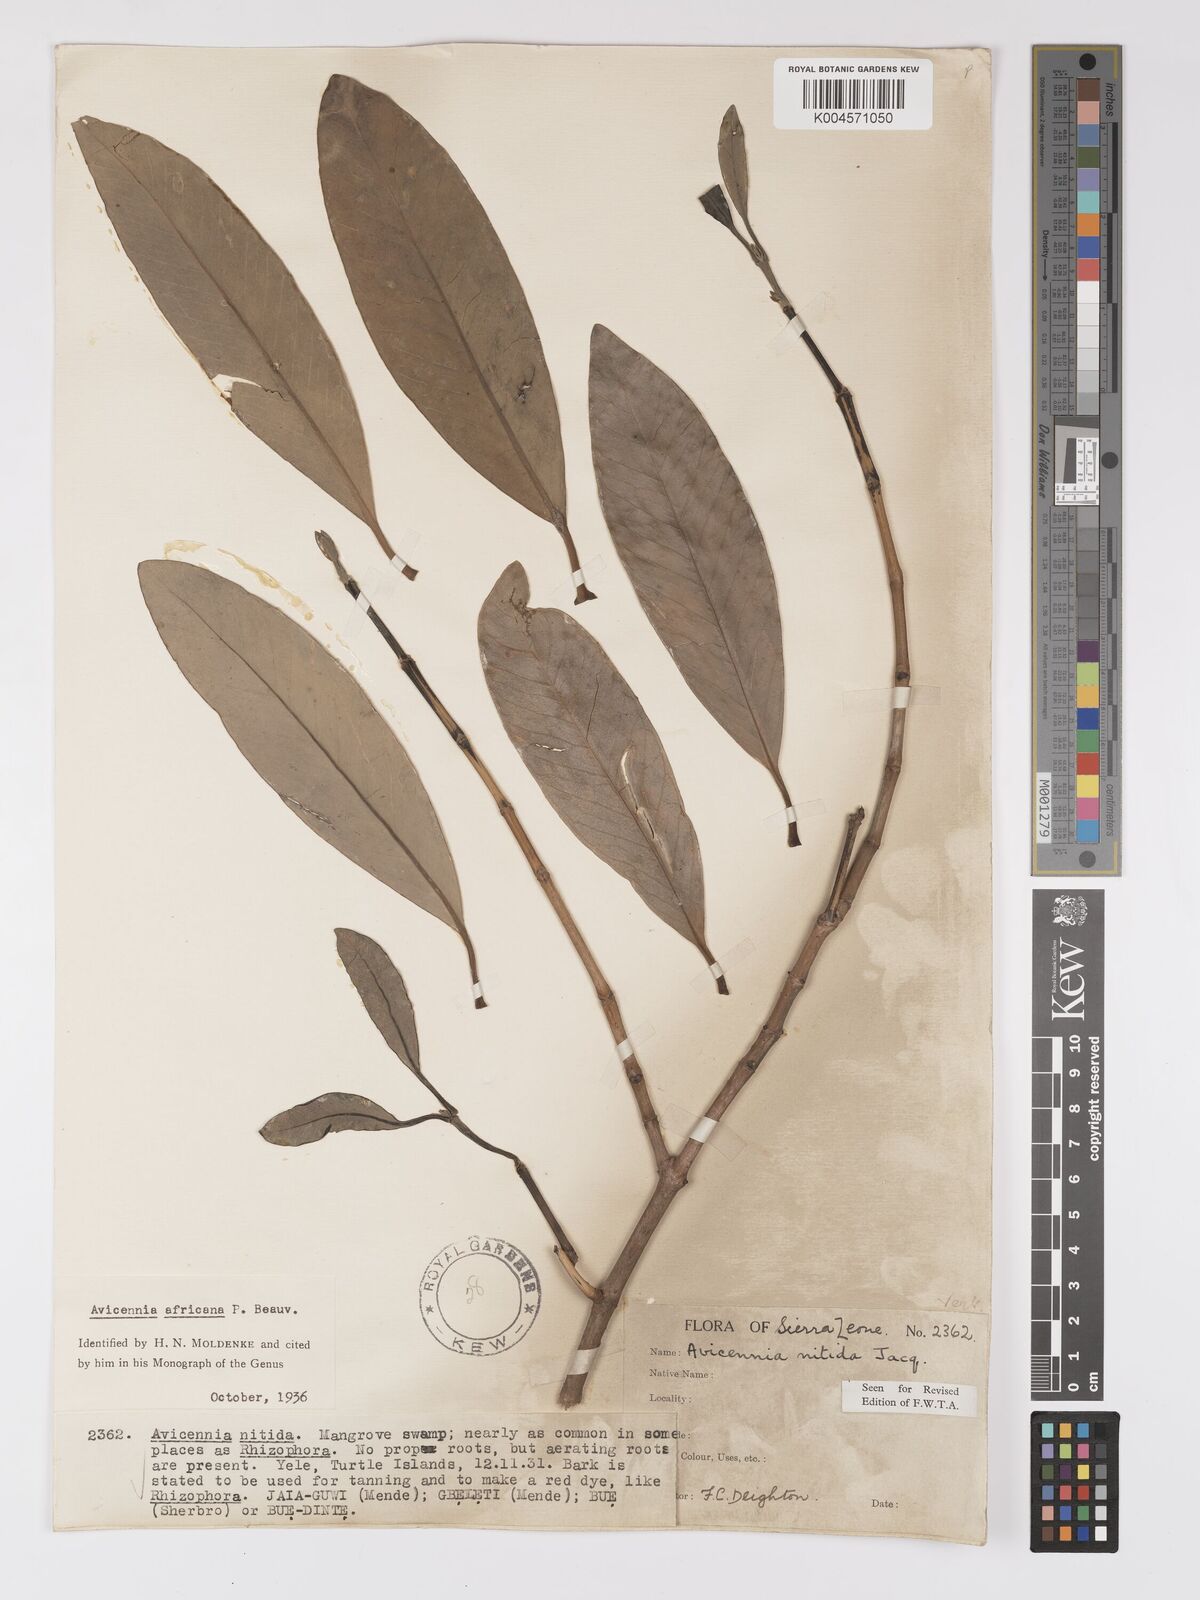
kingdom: Plantae
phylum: Tracheophyta
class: Magnoliopsida
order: Lamiales
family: Acanthaceae
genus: Avicennia
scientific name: Avicennia germinans
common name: Black mangrove
